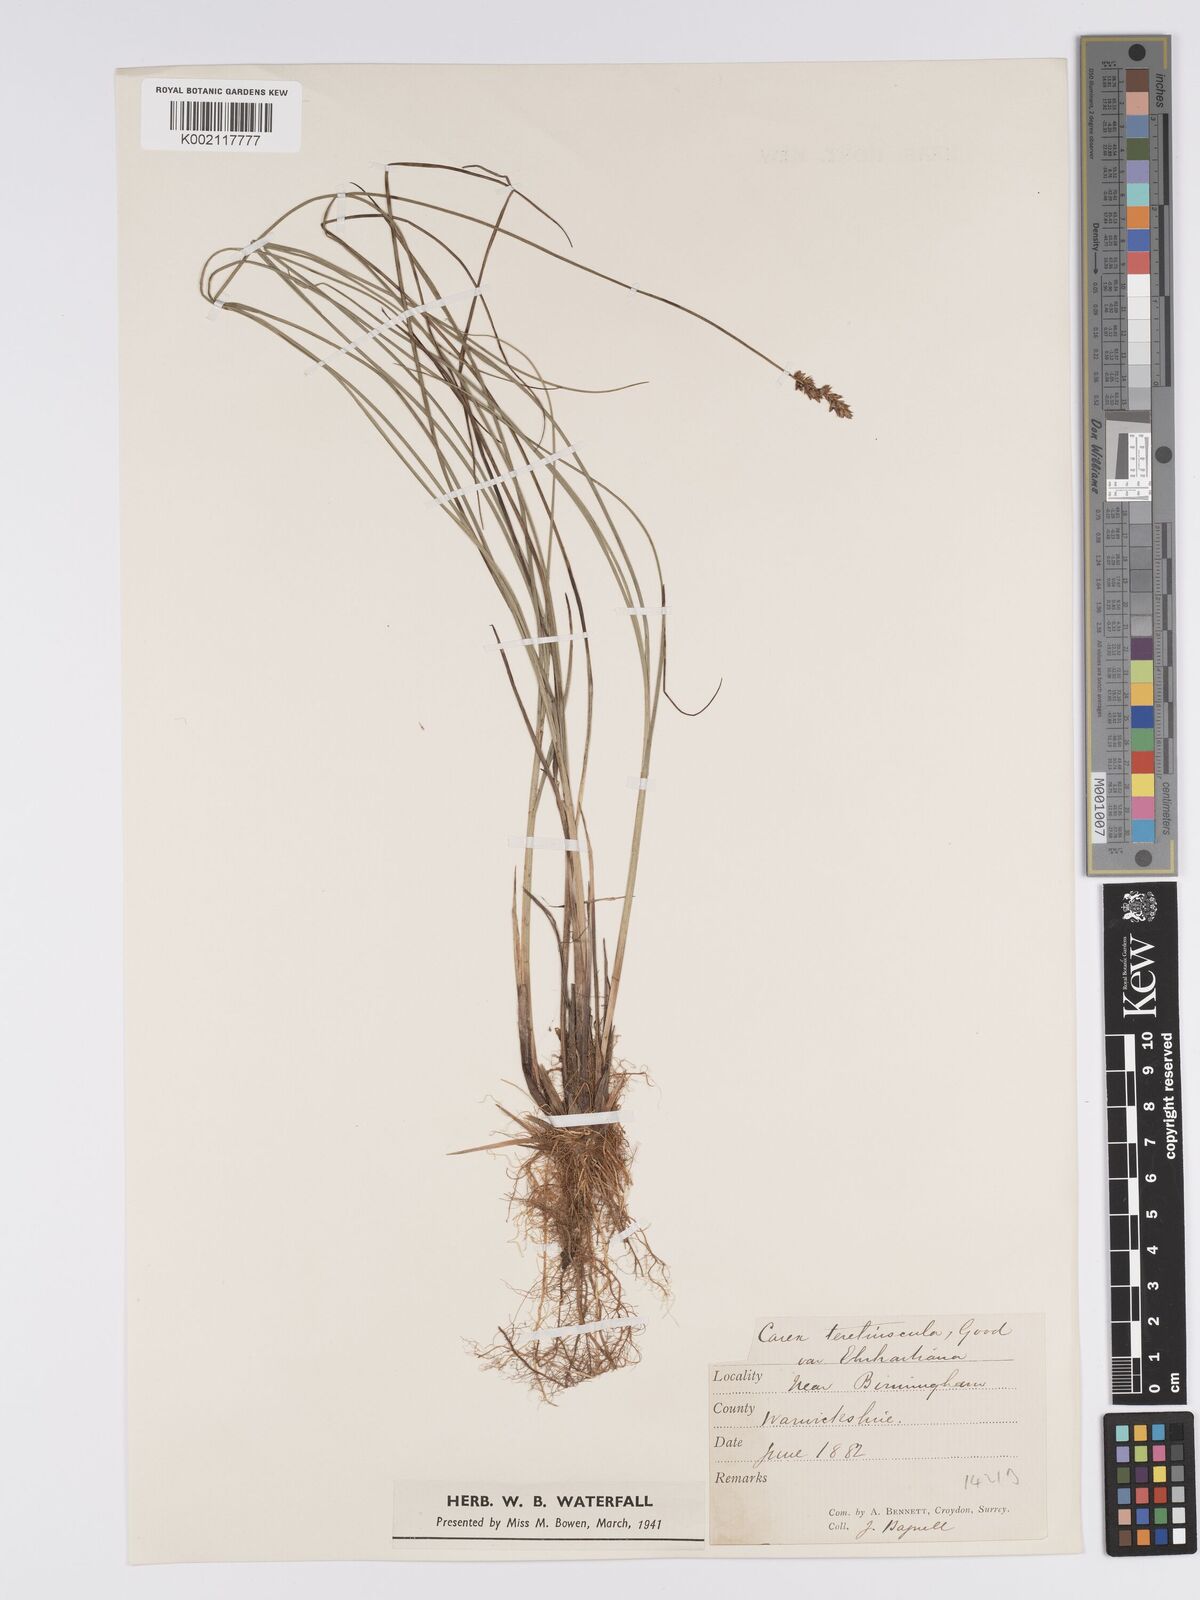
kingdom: Plantae
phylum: Tracheophyta
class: Liliopsida
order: Poales
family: Cyperaceae
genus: Carex
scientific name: Carex diandra
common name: Lesser tussock-sedge
